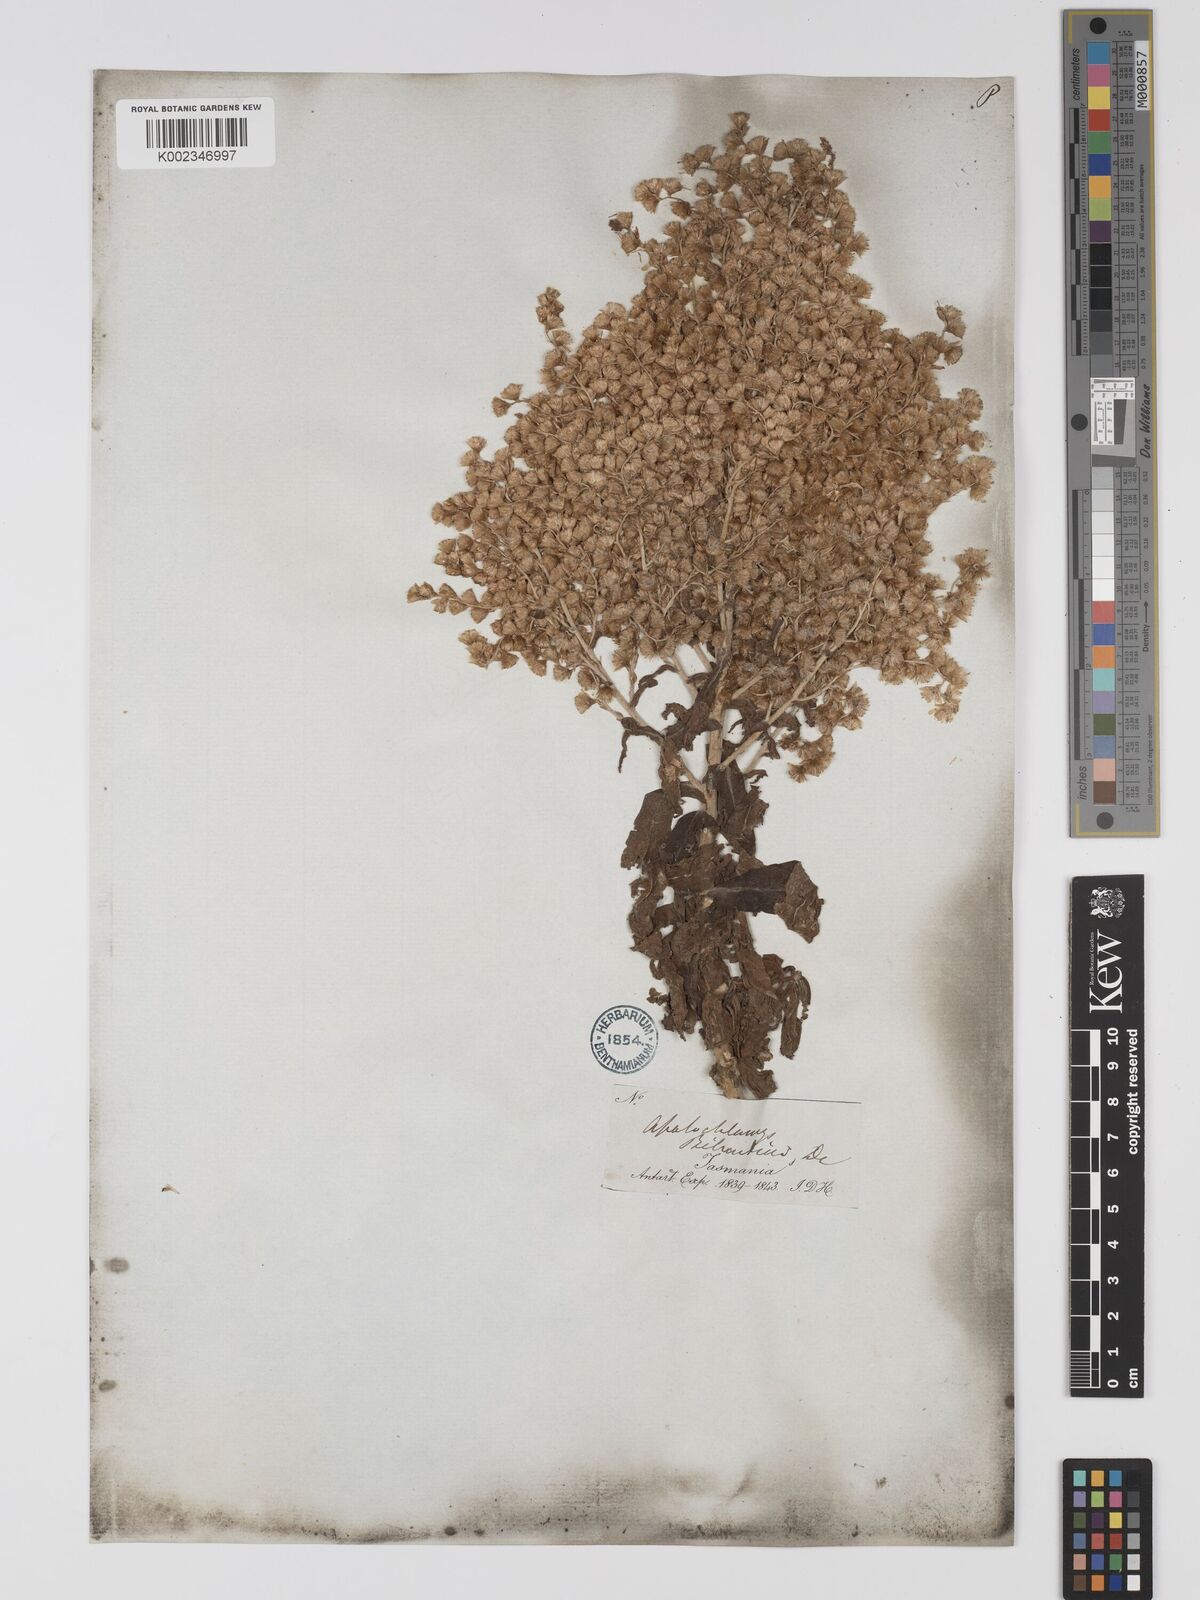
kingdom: Plantae
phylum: Tracheophyta
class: Magnoliopsida
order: Asterales
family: Asteraceae
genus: Apalochlamys
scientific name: Apalochlamys spectabilis
